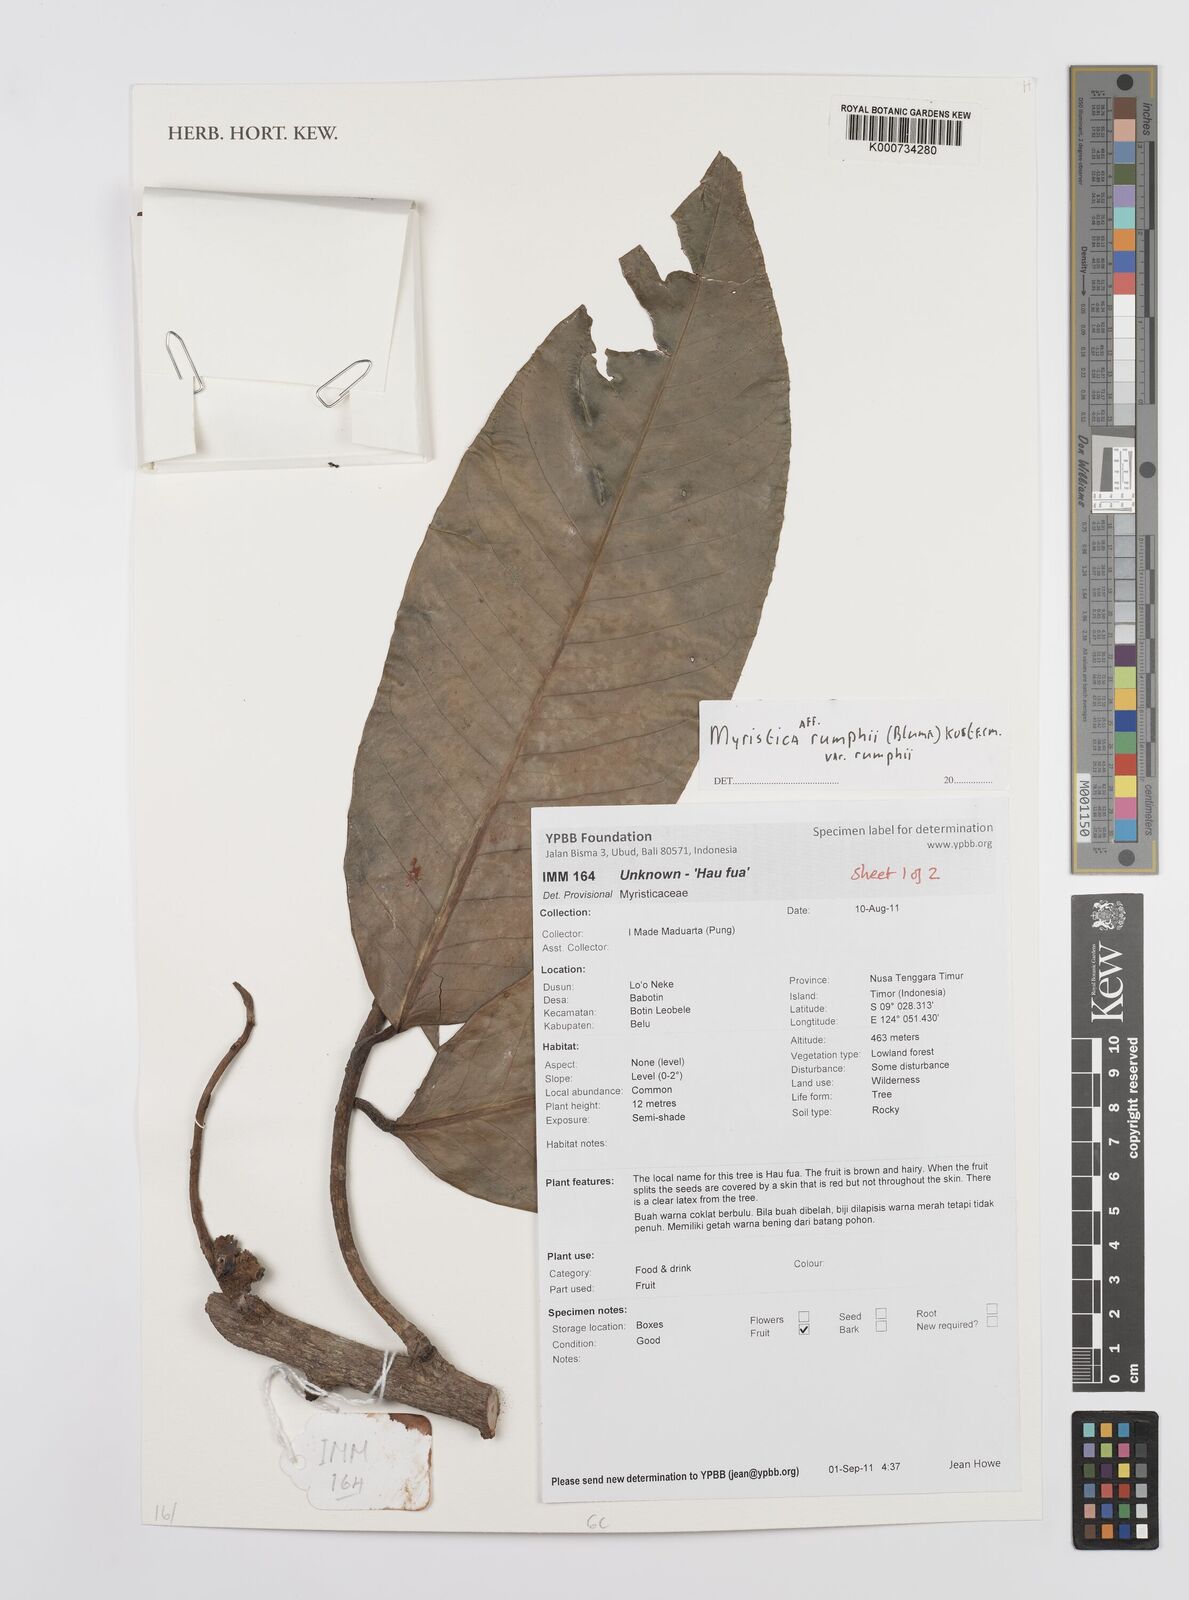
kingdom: Plantae
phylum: Tracheophyta
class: Magnoliopsida
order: Magnoliales
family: Myristicaceae
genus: Myristica
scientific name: Myristica rumphii
